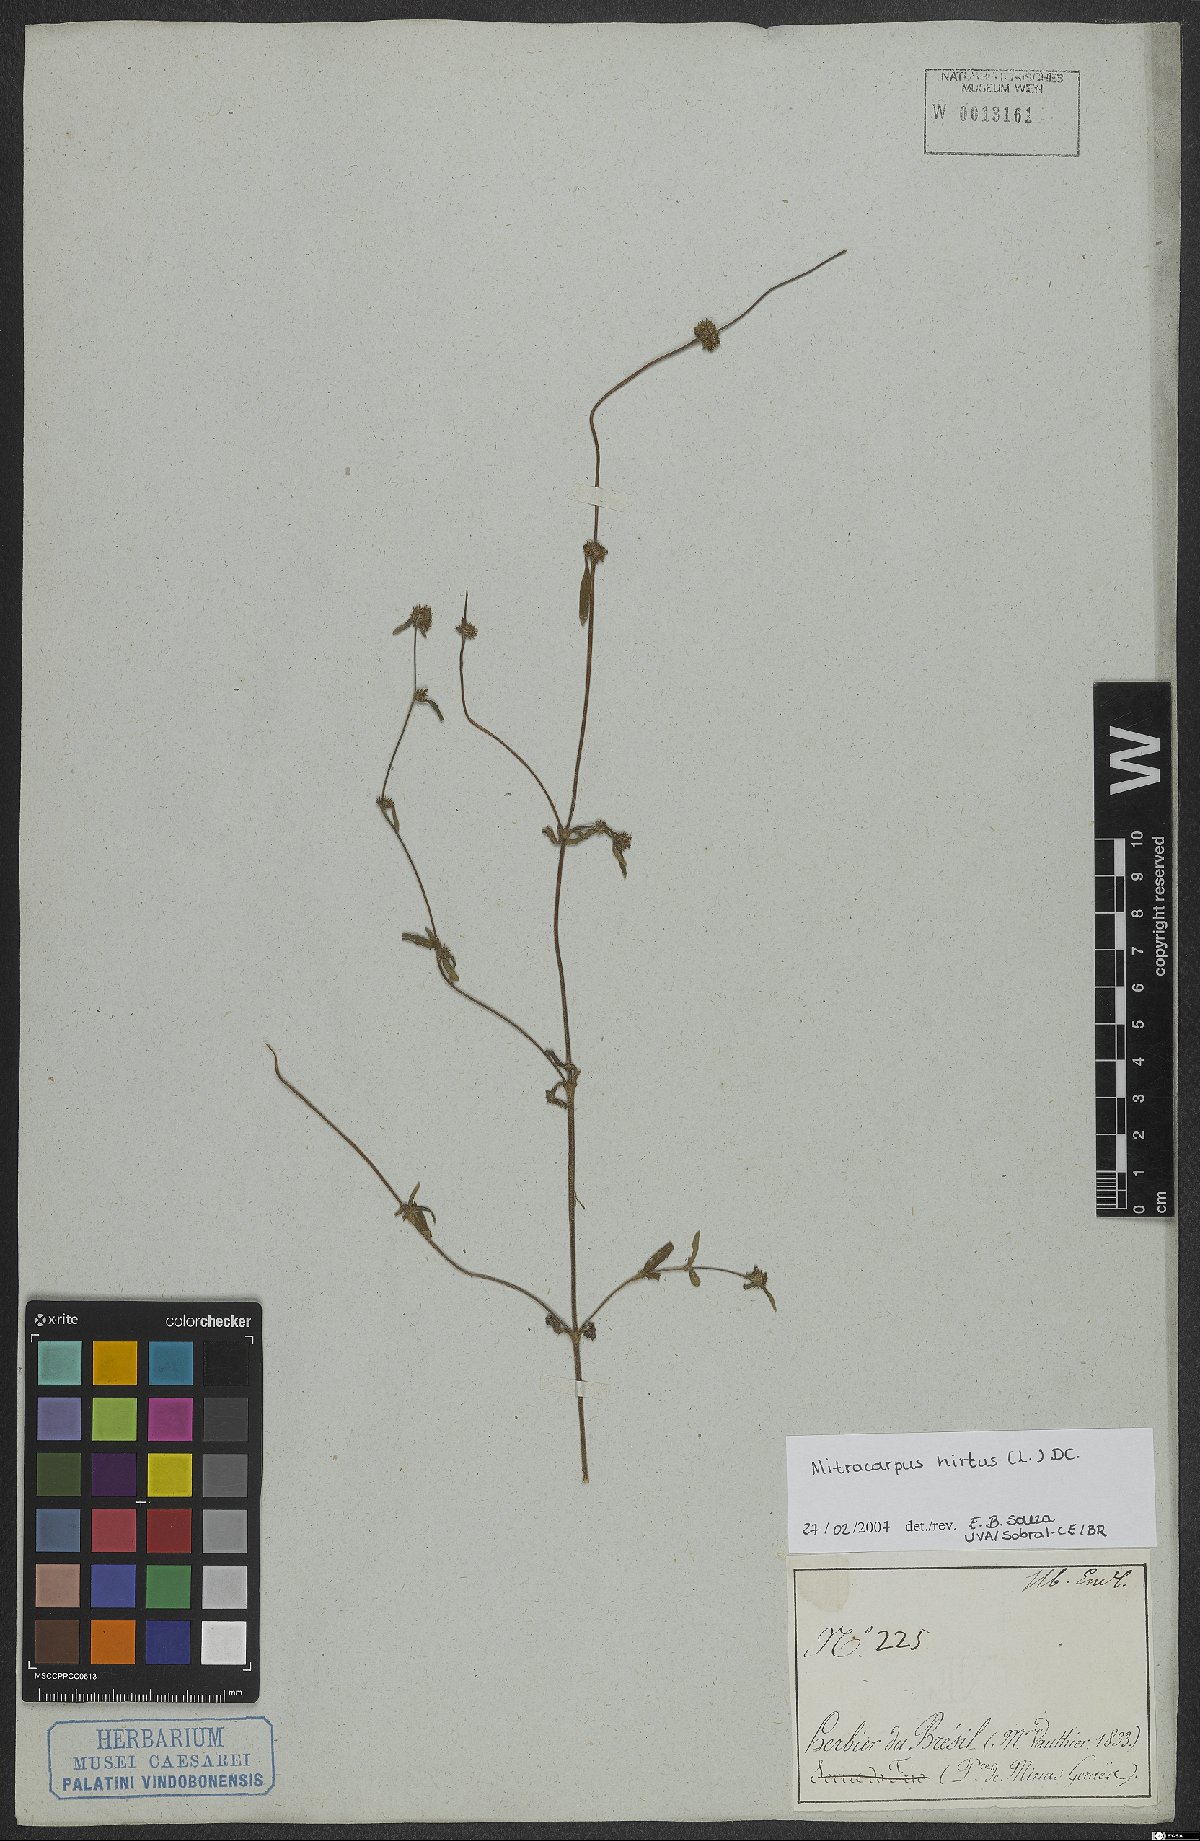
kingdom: Plantae
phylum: Tracheophyta
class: Magnoliopsida
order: Gentianales
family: Rubiaceae
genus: Mitracarpus
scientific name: Mitracarpus hirtus
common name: Tropical girdlepod
